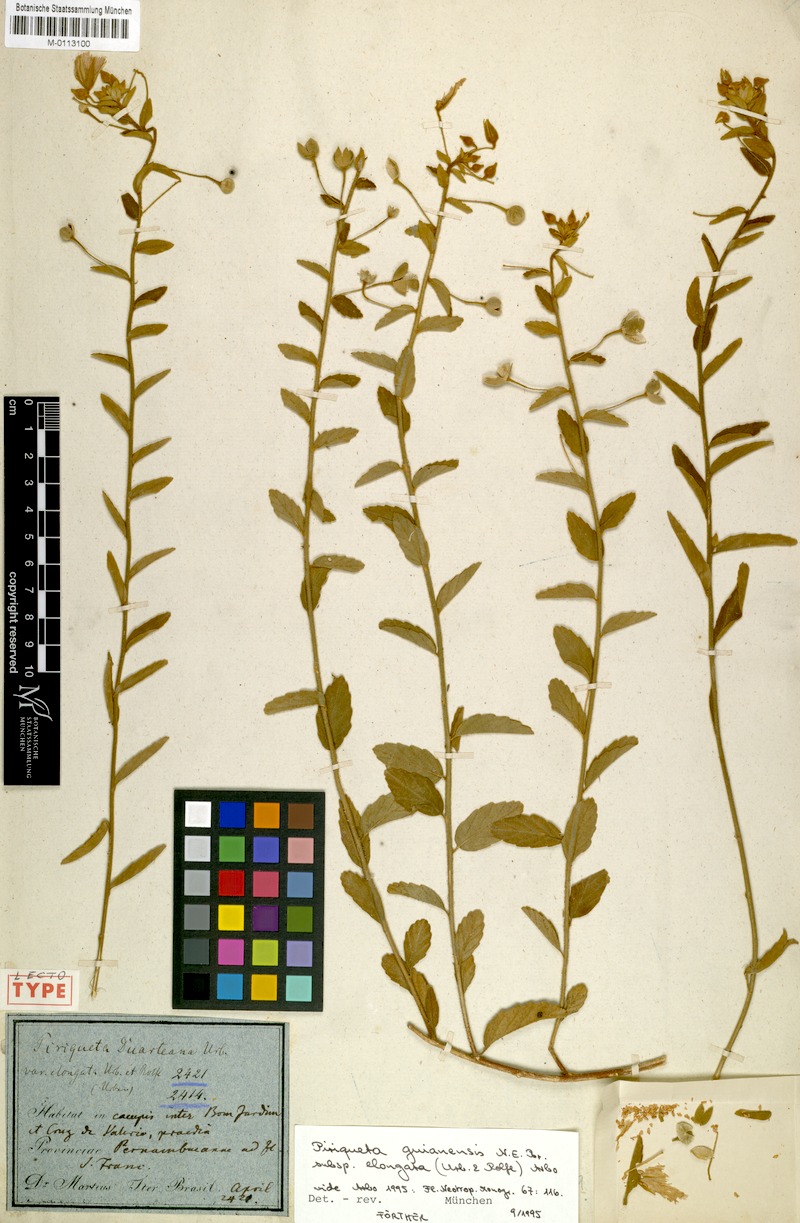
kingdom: Plantae
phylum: Tracheophyta
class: Magnoliopsida
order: Malpighiales
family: Turneraceae
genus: Piriqueta
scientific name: Piriqueta guianensis
